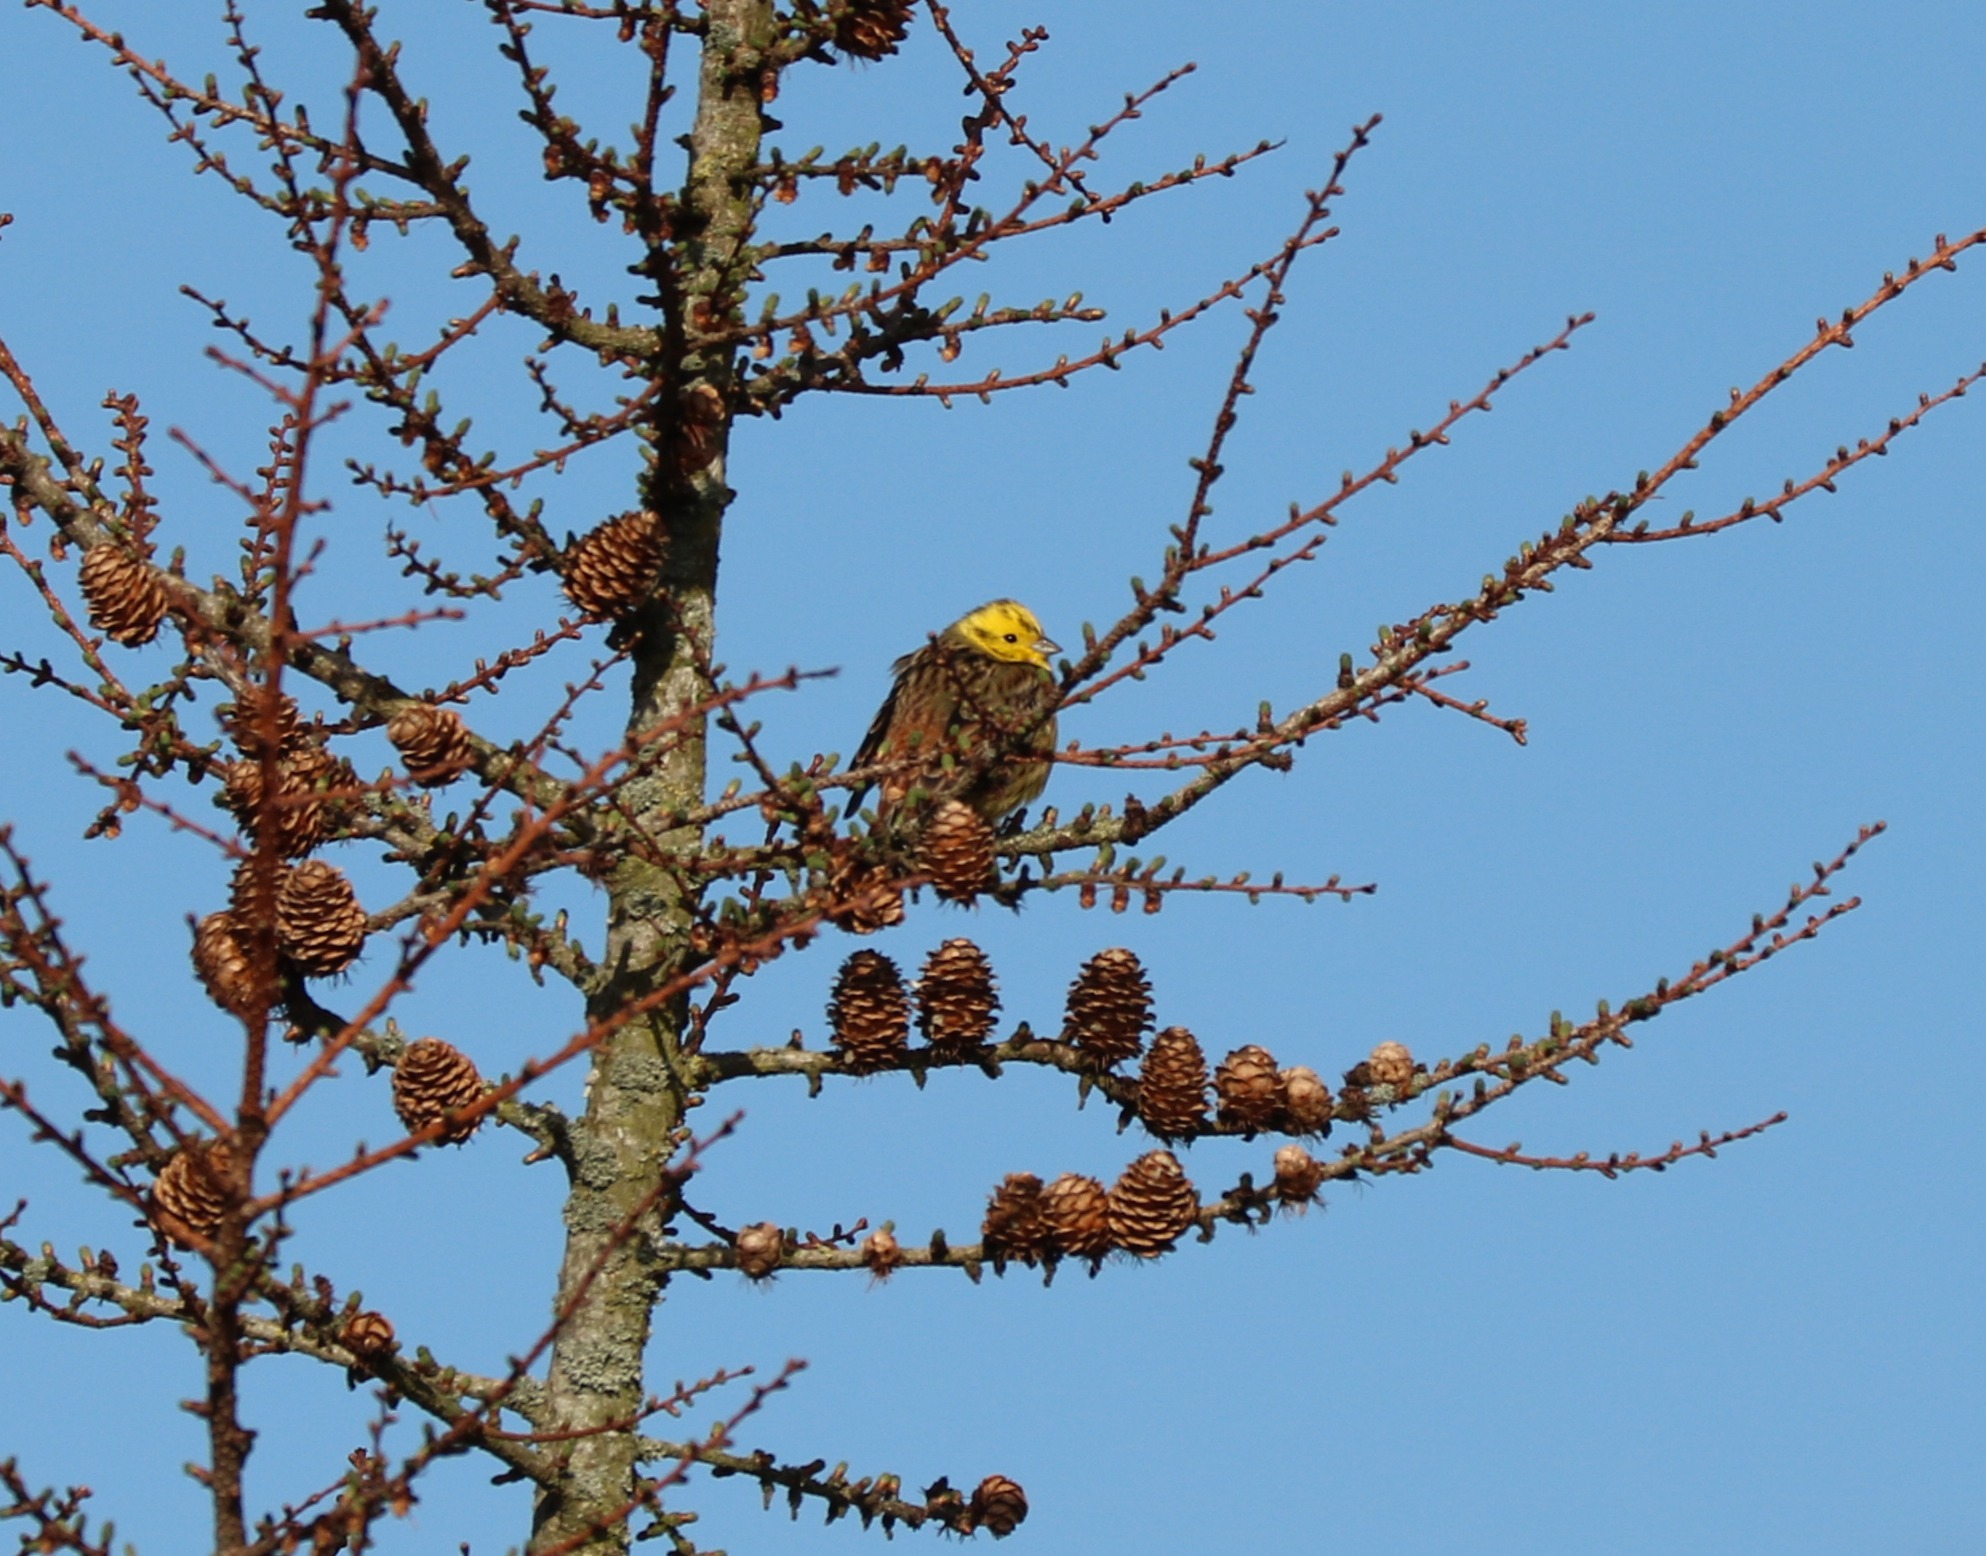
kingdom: Animalia
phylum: Chordata
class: Aves
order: Passeriformes
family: Emberizidae
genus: Emberiza
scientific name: Emberiza citrinella
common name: Gulspurv
